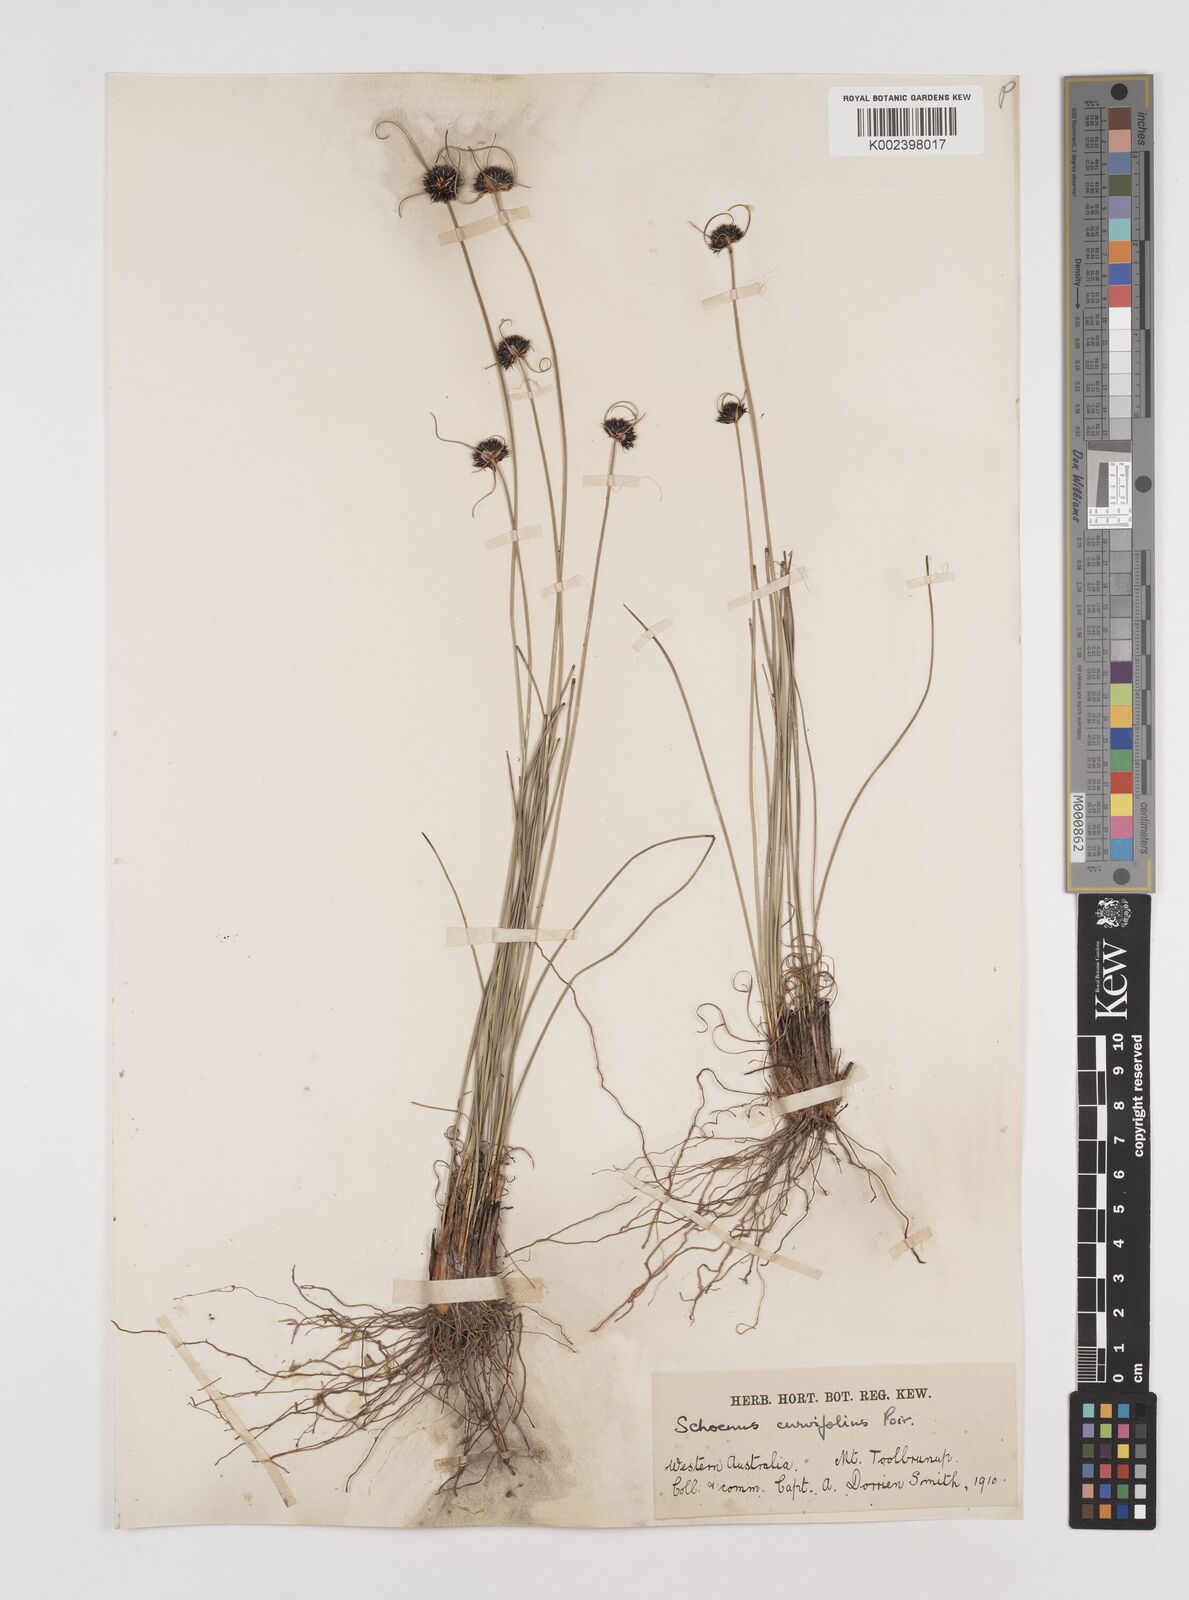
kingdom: Plantae
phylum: Tracheophyta
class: Liliopsida
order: Poales
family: Cyperaceae
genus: Schoenus
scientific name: Schoenus curvifolius
